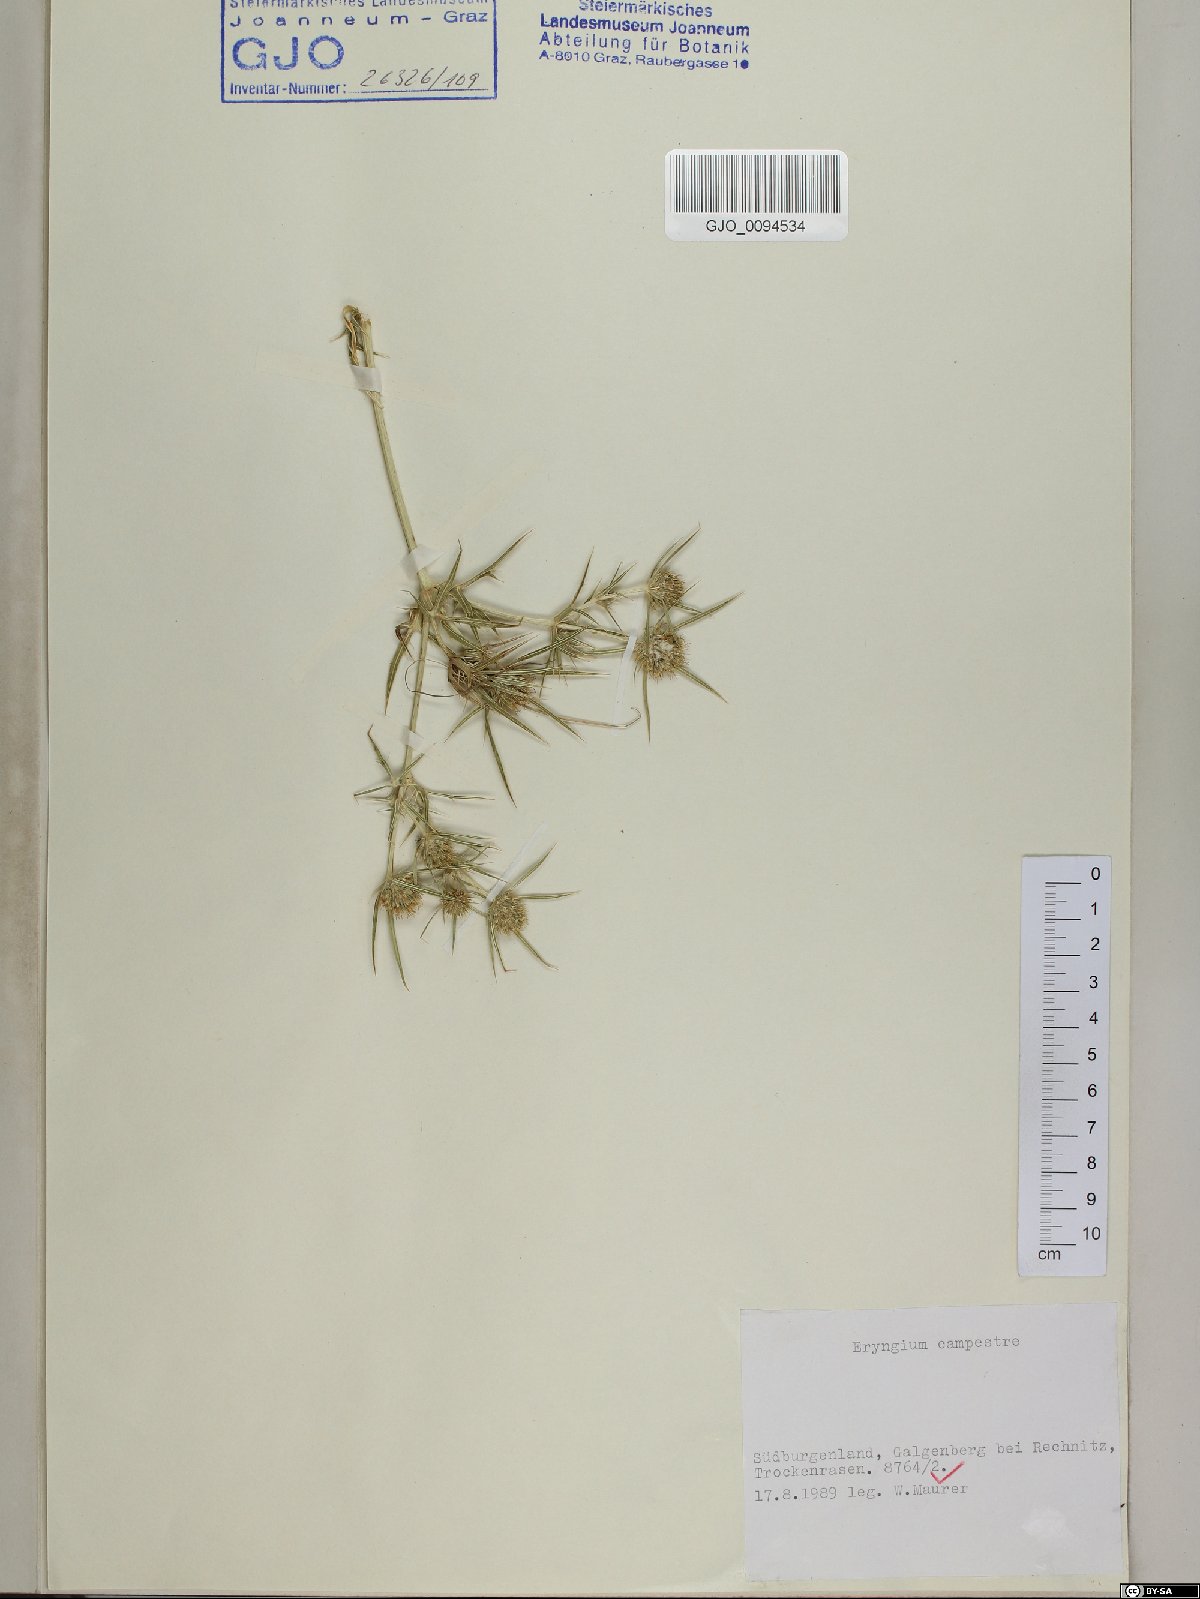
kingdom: Plantae
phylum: Tracheophyta
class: Magnoliopsida
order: Apiales
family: Apiaceae
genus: Eryngium
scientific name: Eryngium campestre
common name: Field eryngo
